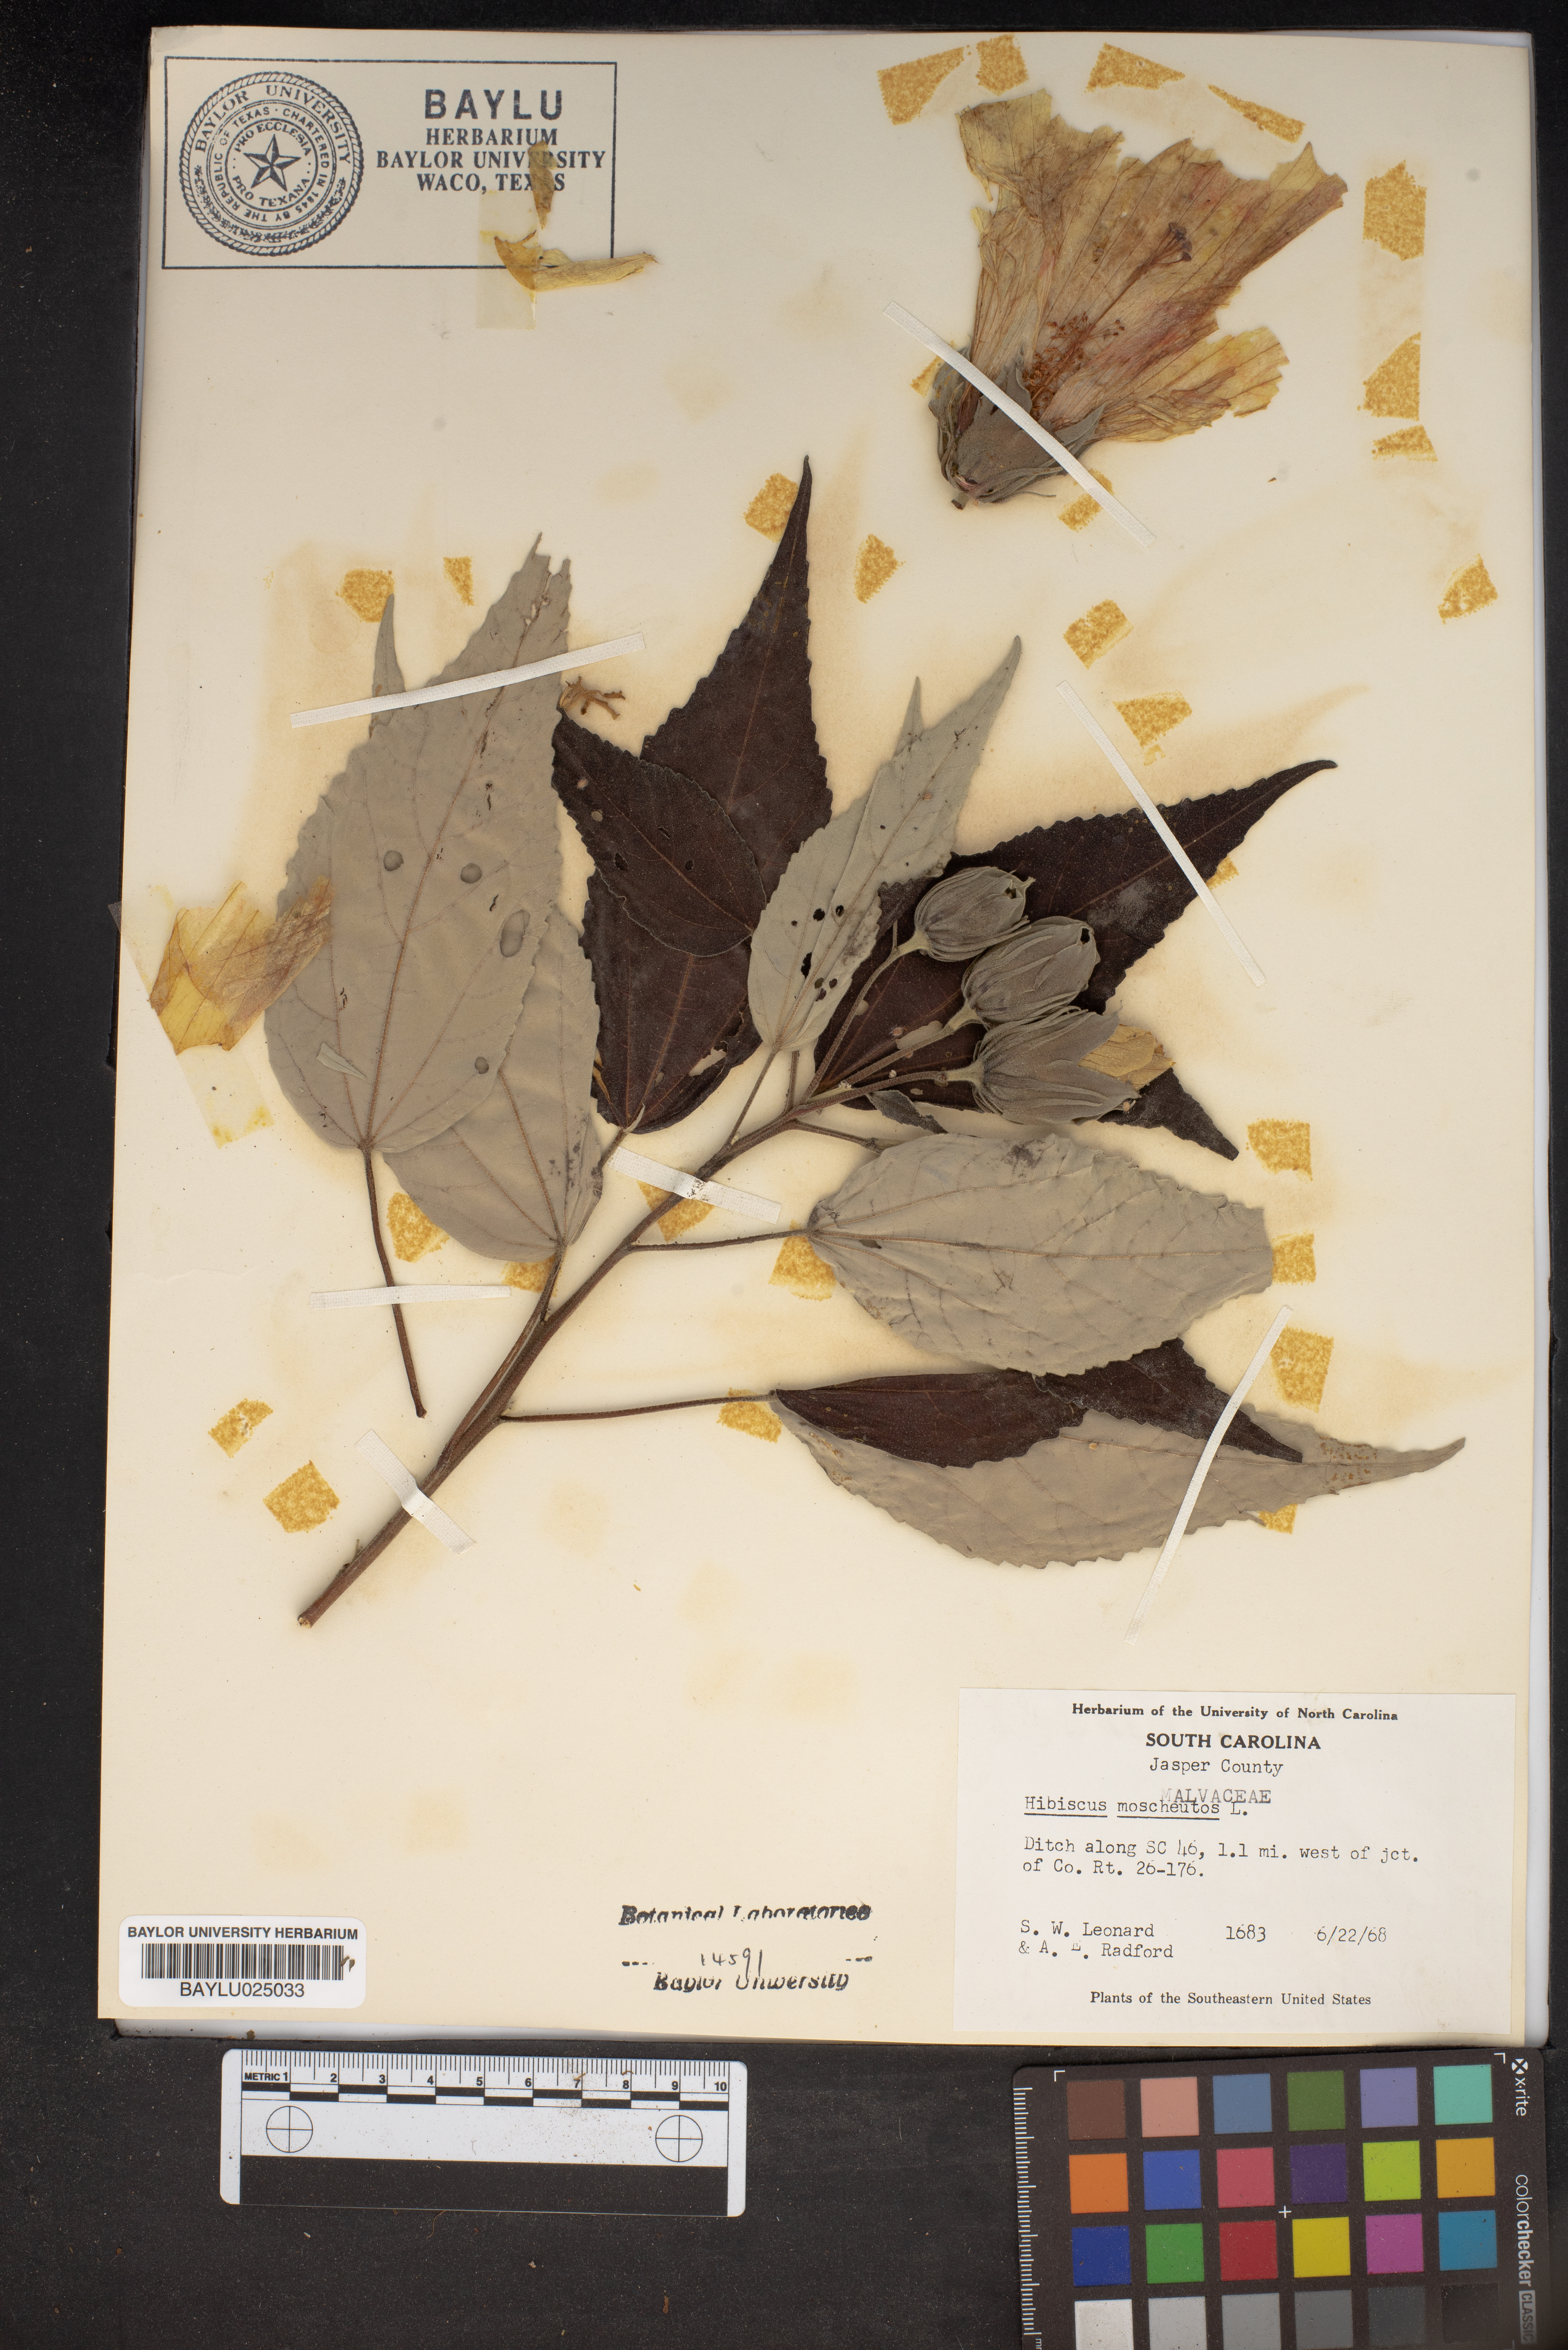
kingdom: Plantae
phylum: Tracheophyta
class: Magnoliopsida
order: Malvales
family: Malvaceae
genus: Hibiscus
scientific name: Hibiscus moscheutos
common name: Common rose-mallow
